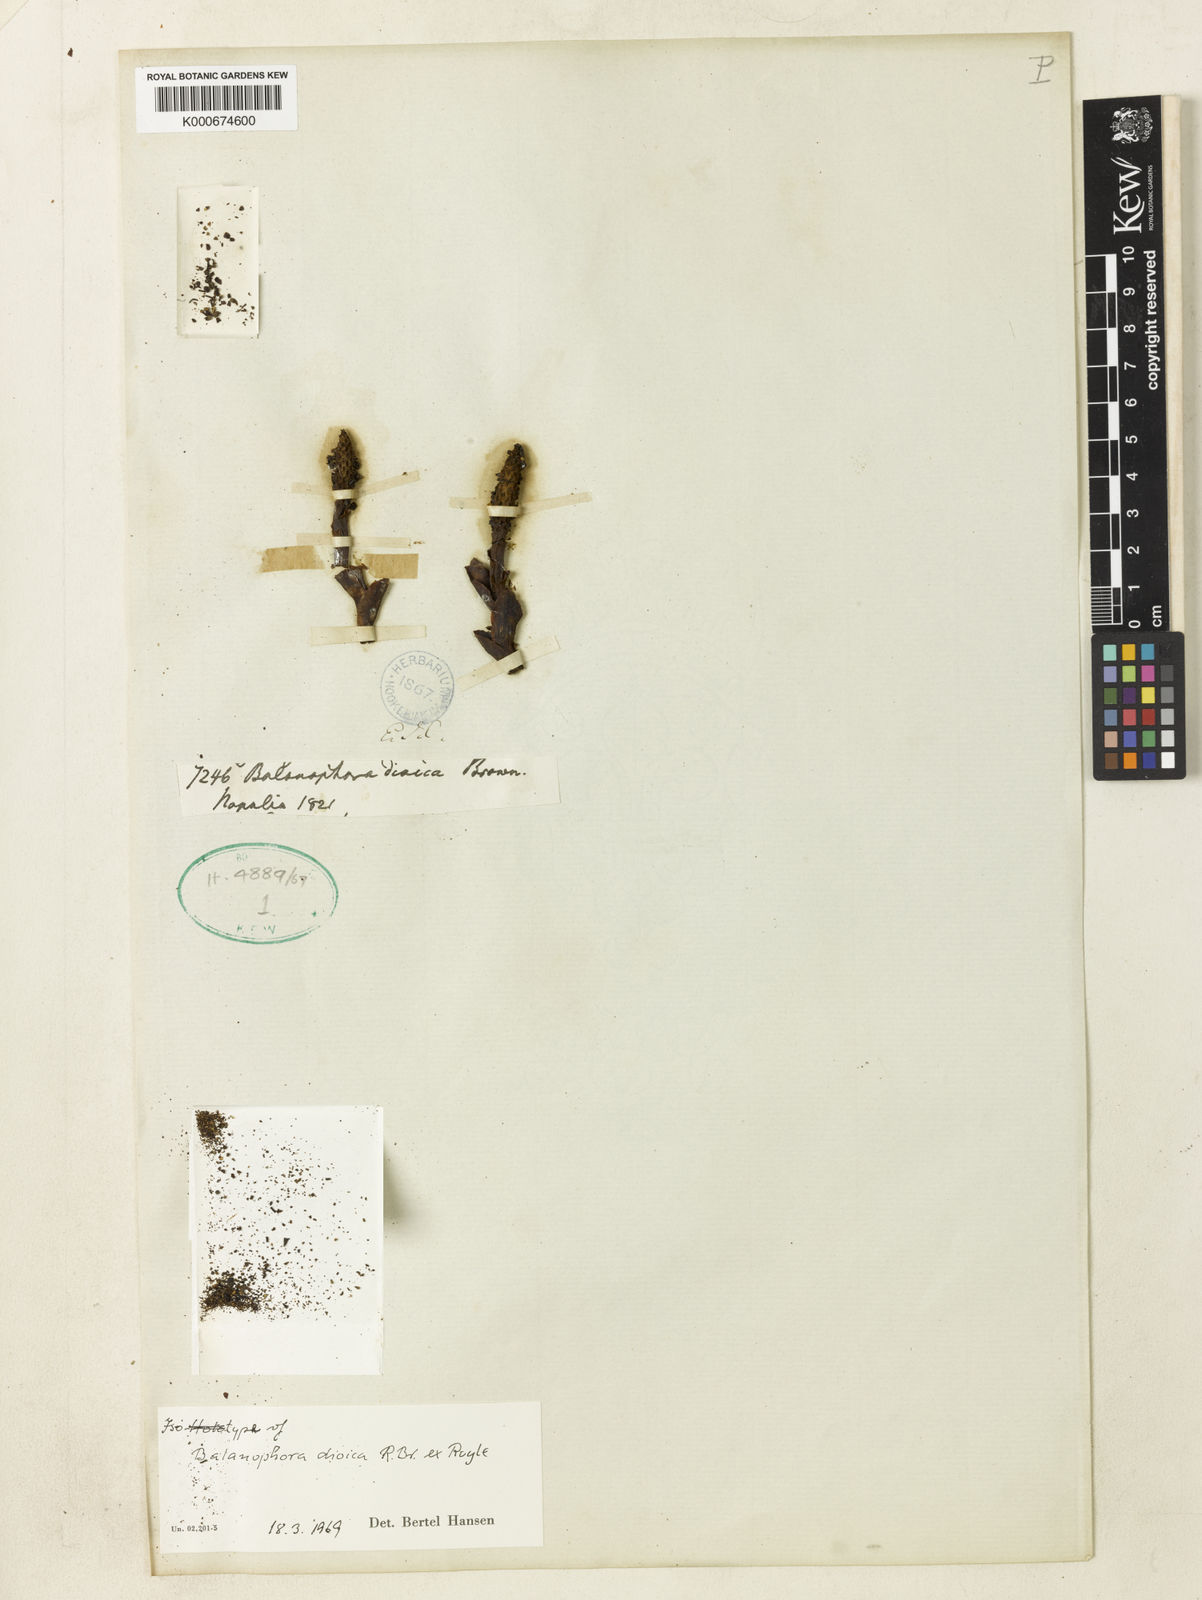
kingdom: Plantae
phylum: Tracheophyta
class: Magnoliopsida
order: Santalales
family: Balanophoraceae
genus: Balanophora
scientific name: Balanophora dioica
